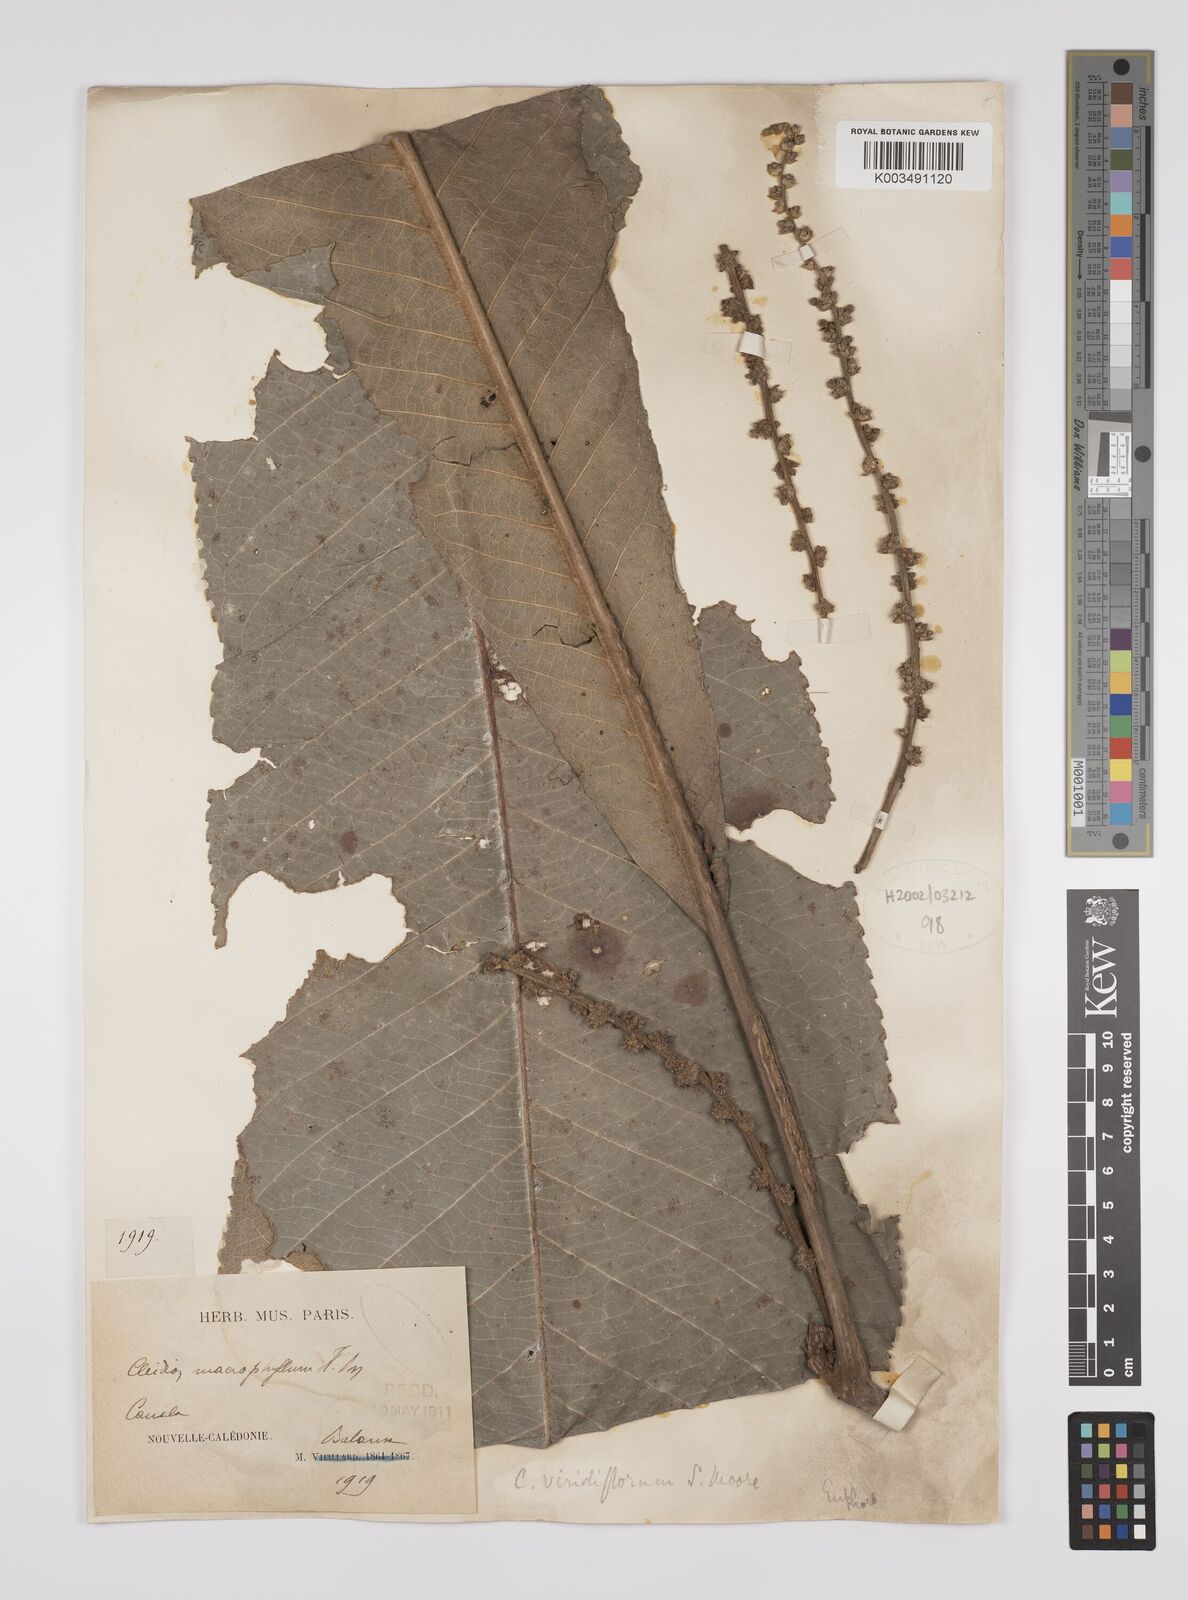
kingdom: Plantae
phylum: Tracheophyta
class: Magnoliopsida
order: Malpighiales
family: Euphorbiaceae
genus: Cleidion
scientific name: Cleidion macrophyllum
